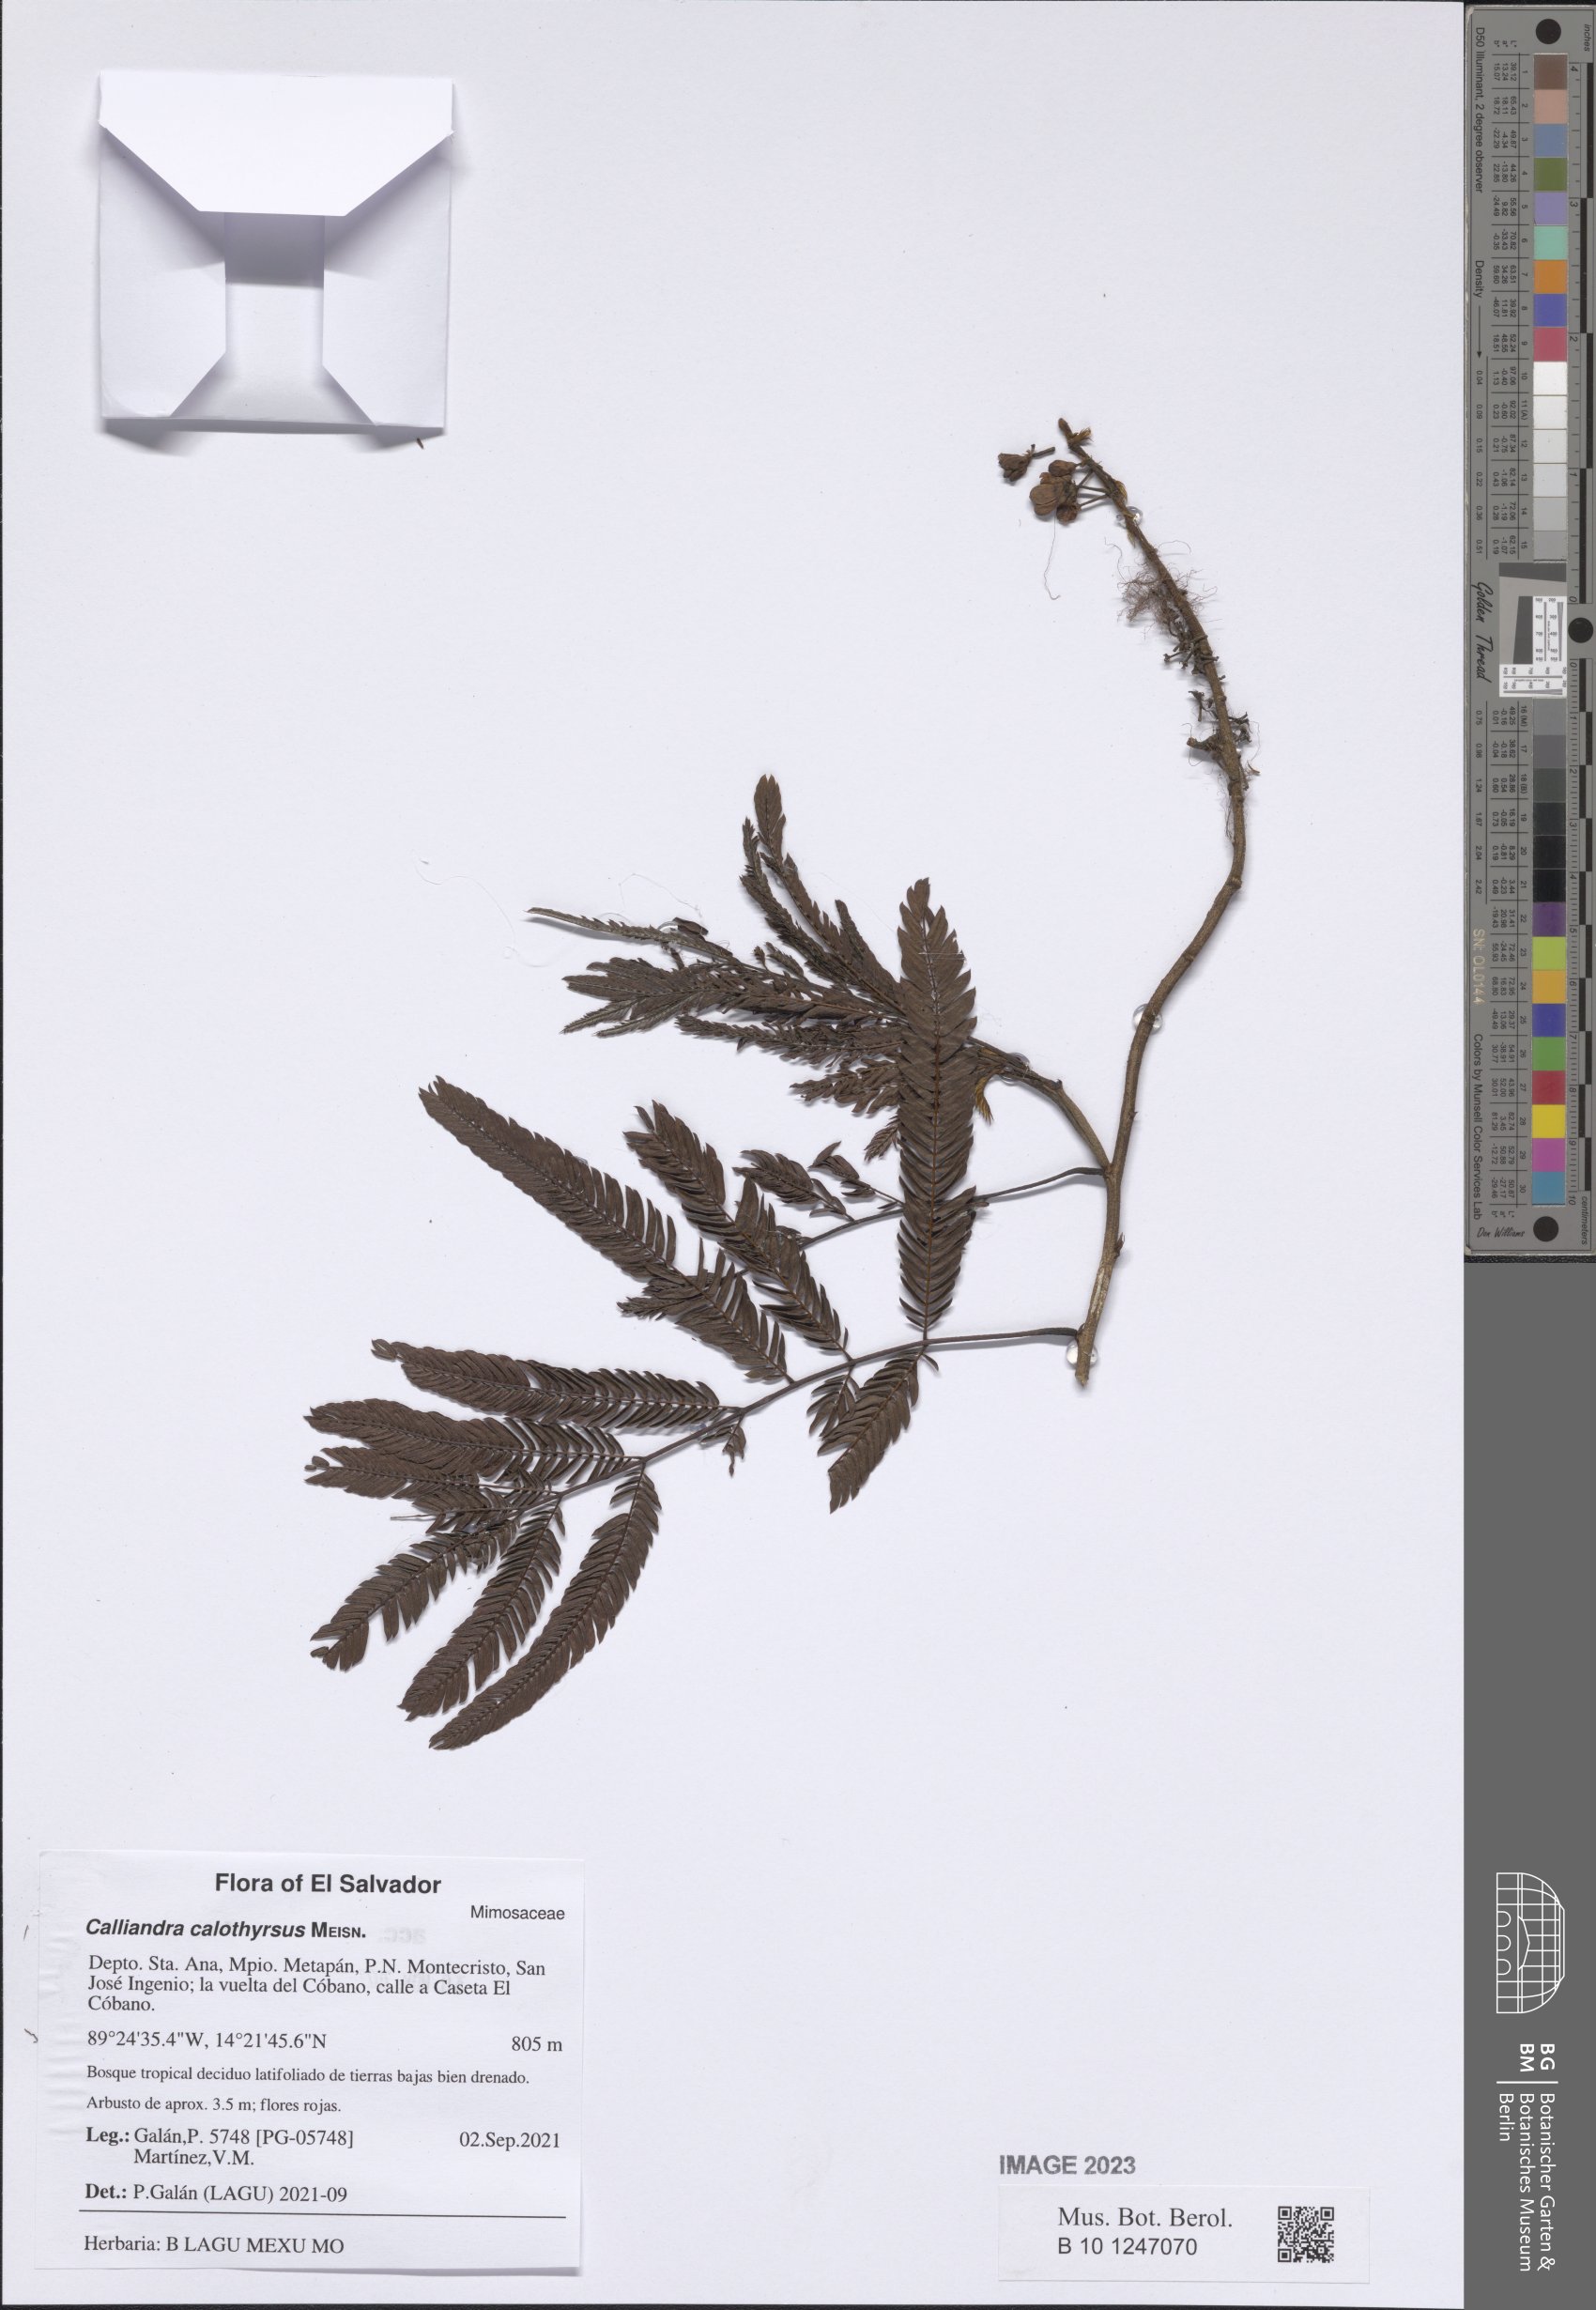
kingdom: Plantae
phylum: Tracheophyta
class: Magnoliopsida
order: Fabales
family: Fabaceae
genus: Calliandra
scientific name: Calliandra houstoniana
